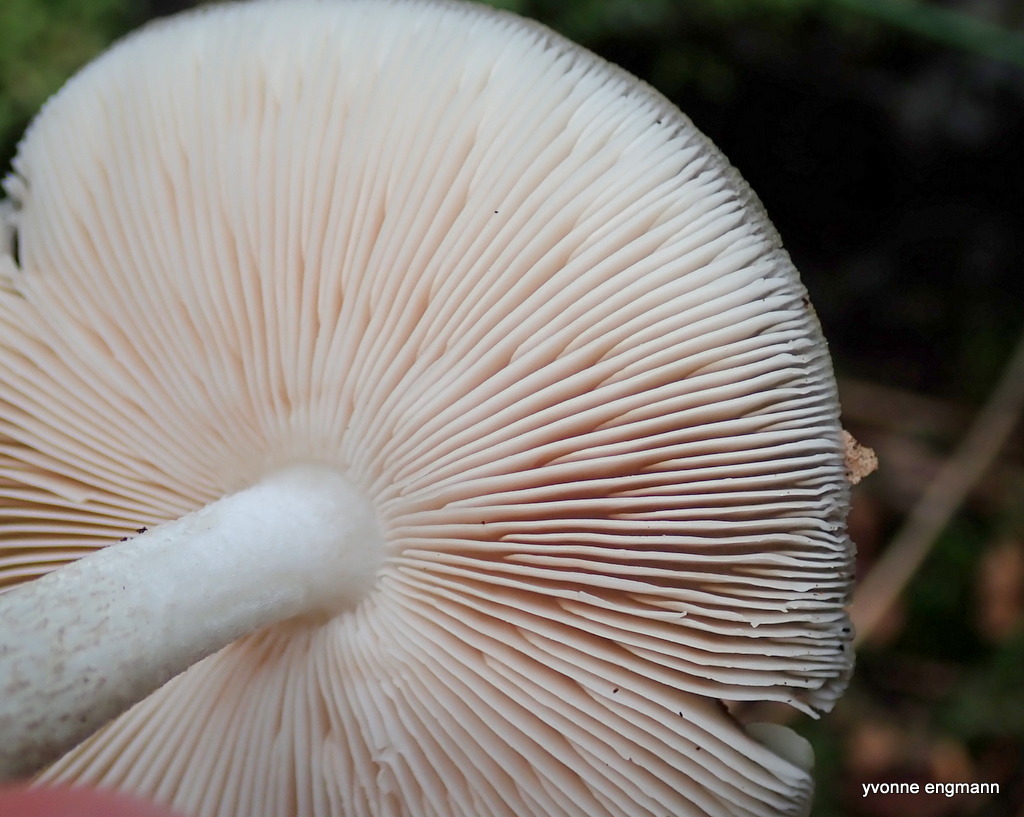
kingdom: Fungi
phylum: Basidiomycota
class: Agaricomycetes
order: Agaricales
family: Pluteaceae
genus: Pluteus
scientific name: Pluteus cervinus
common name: sodfarvet skærmhat
